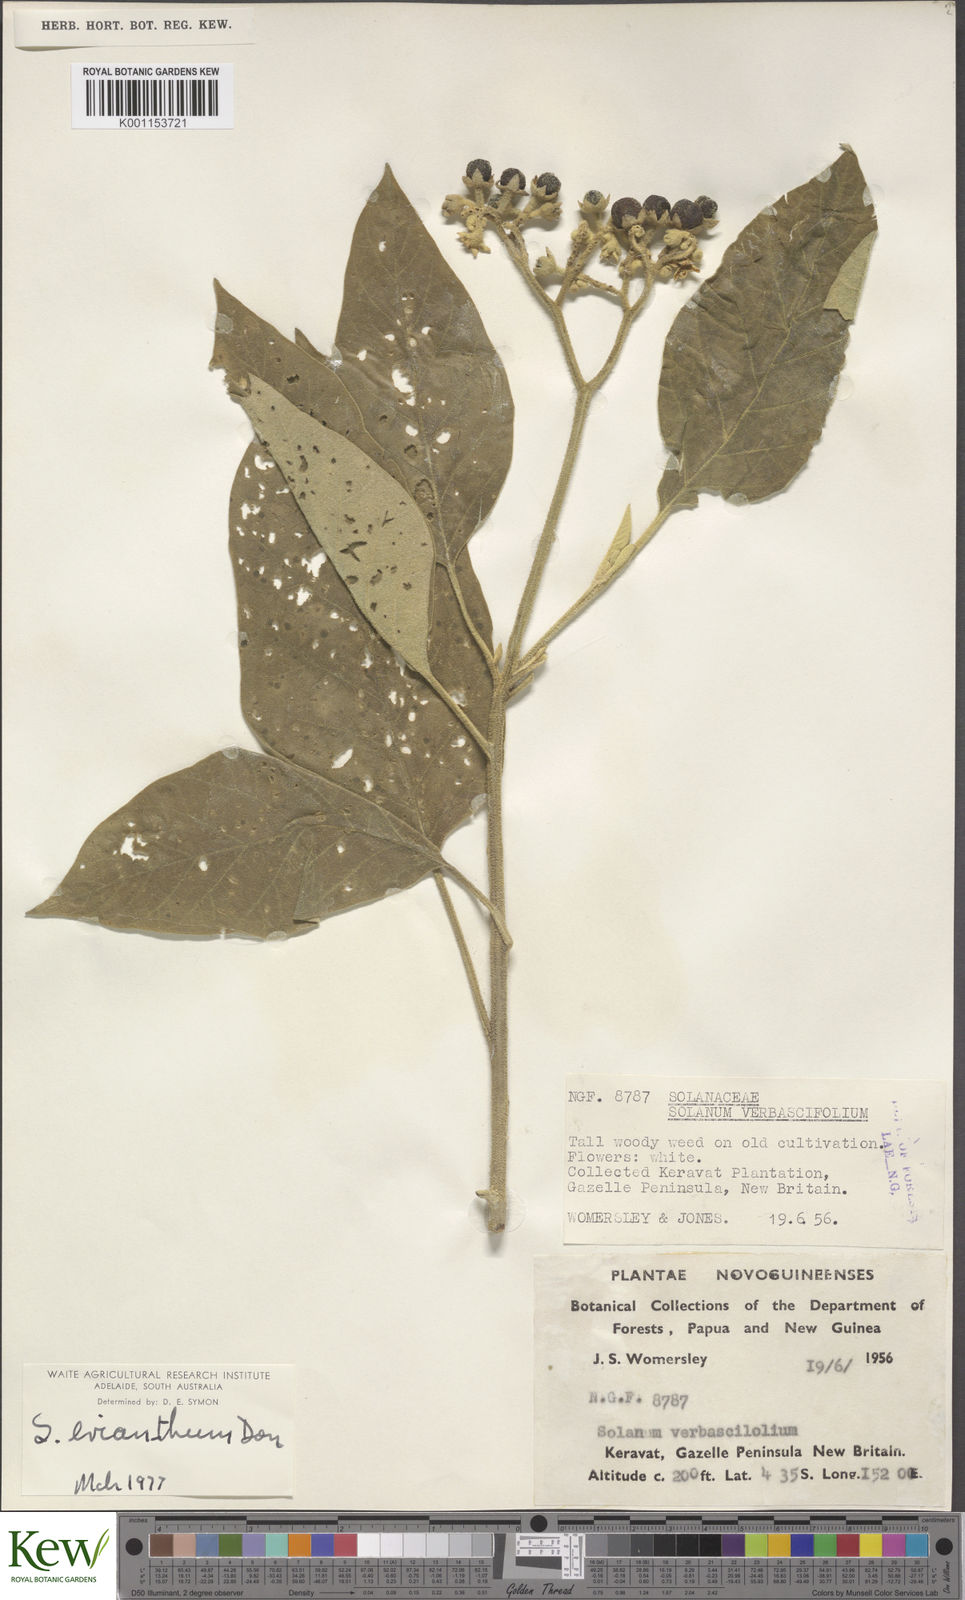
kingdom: Plantae
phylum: Tracheophyta
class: Magnoliopsida
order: Solanales
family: Solanaceae
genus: Solanum
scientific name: Solanum erianthum
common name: Tobacco-tree
